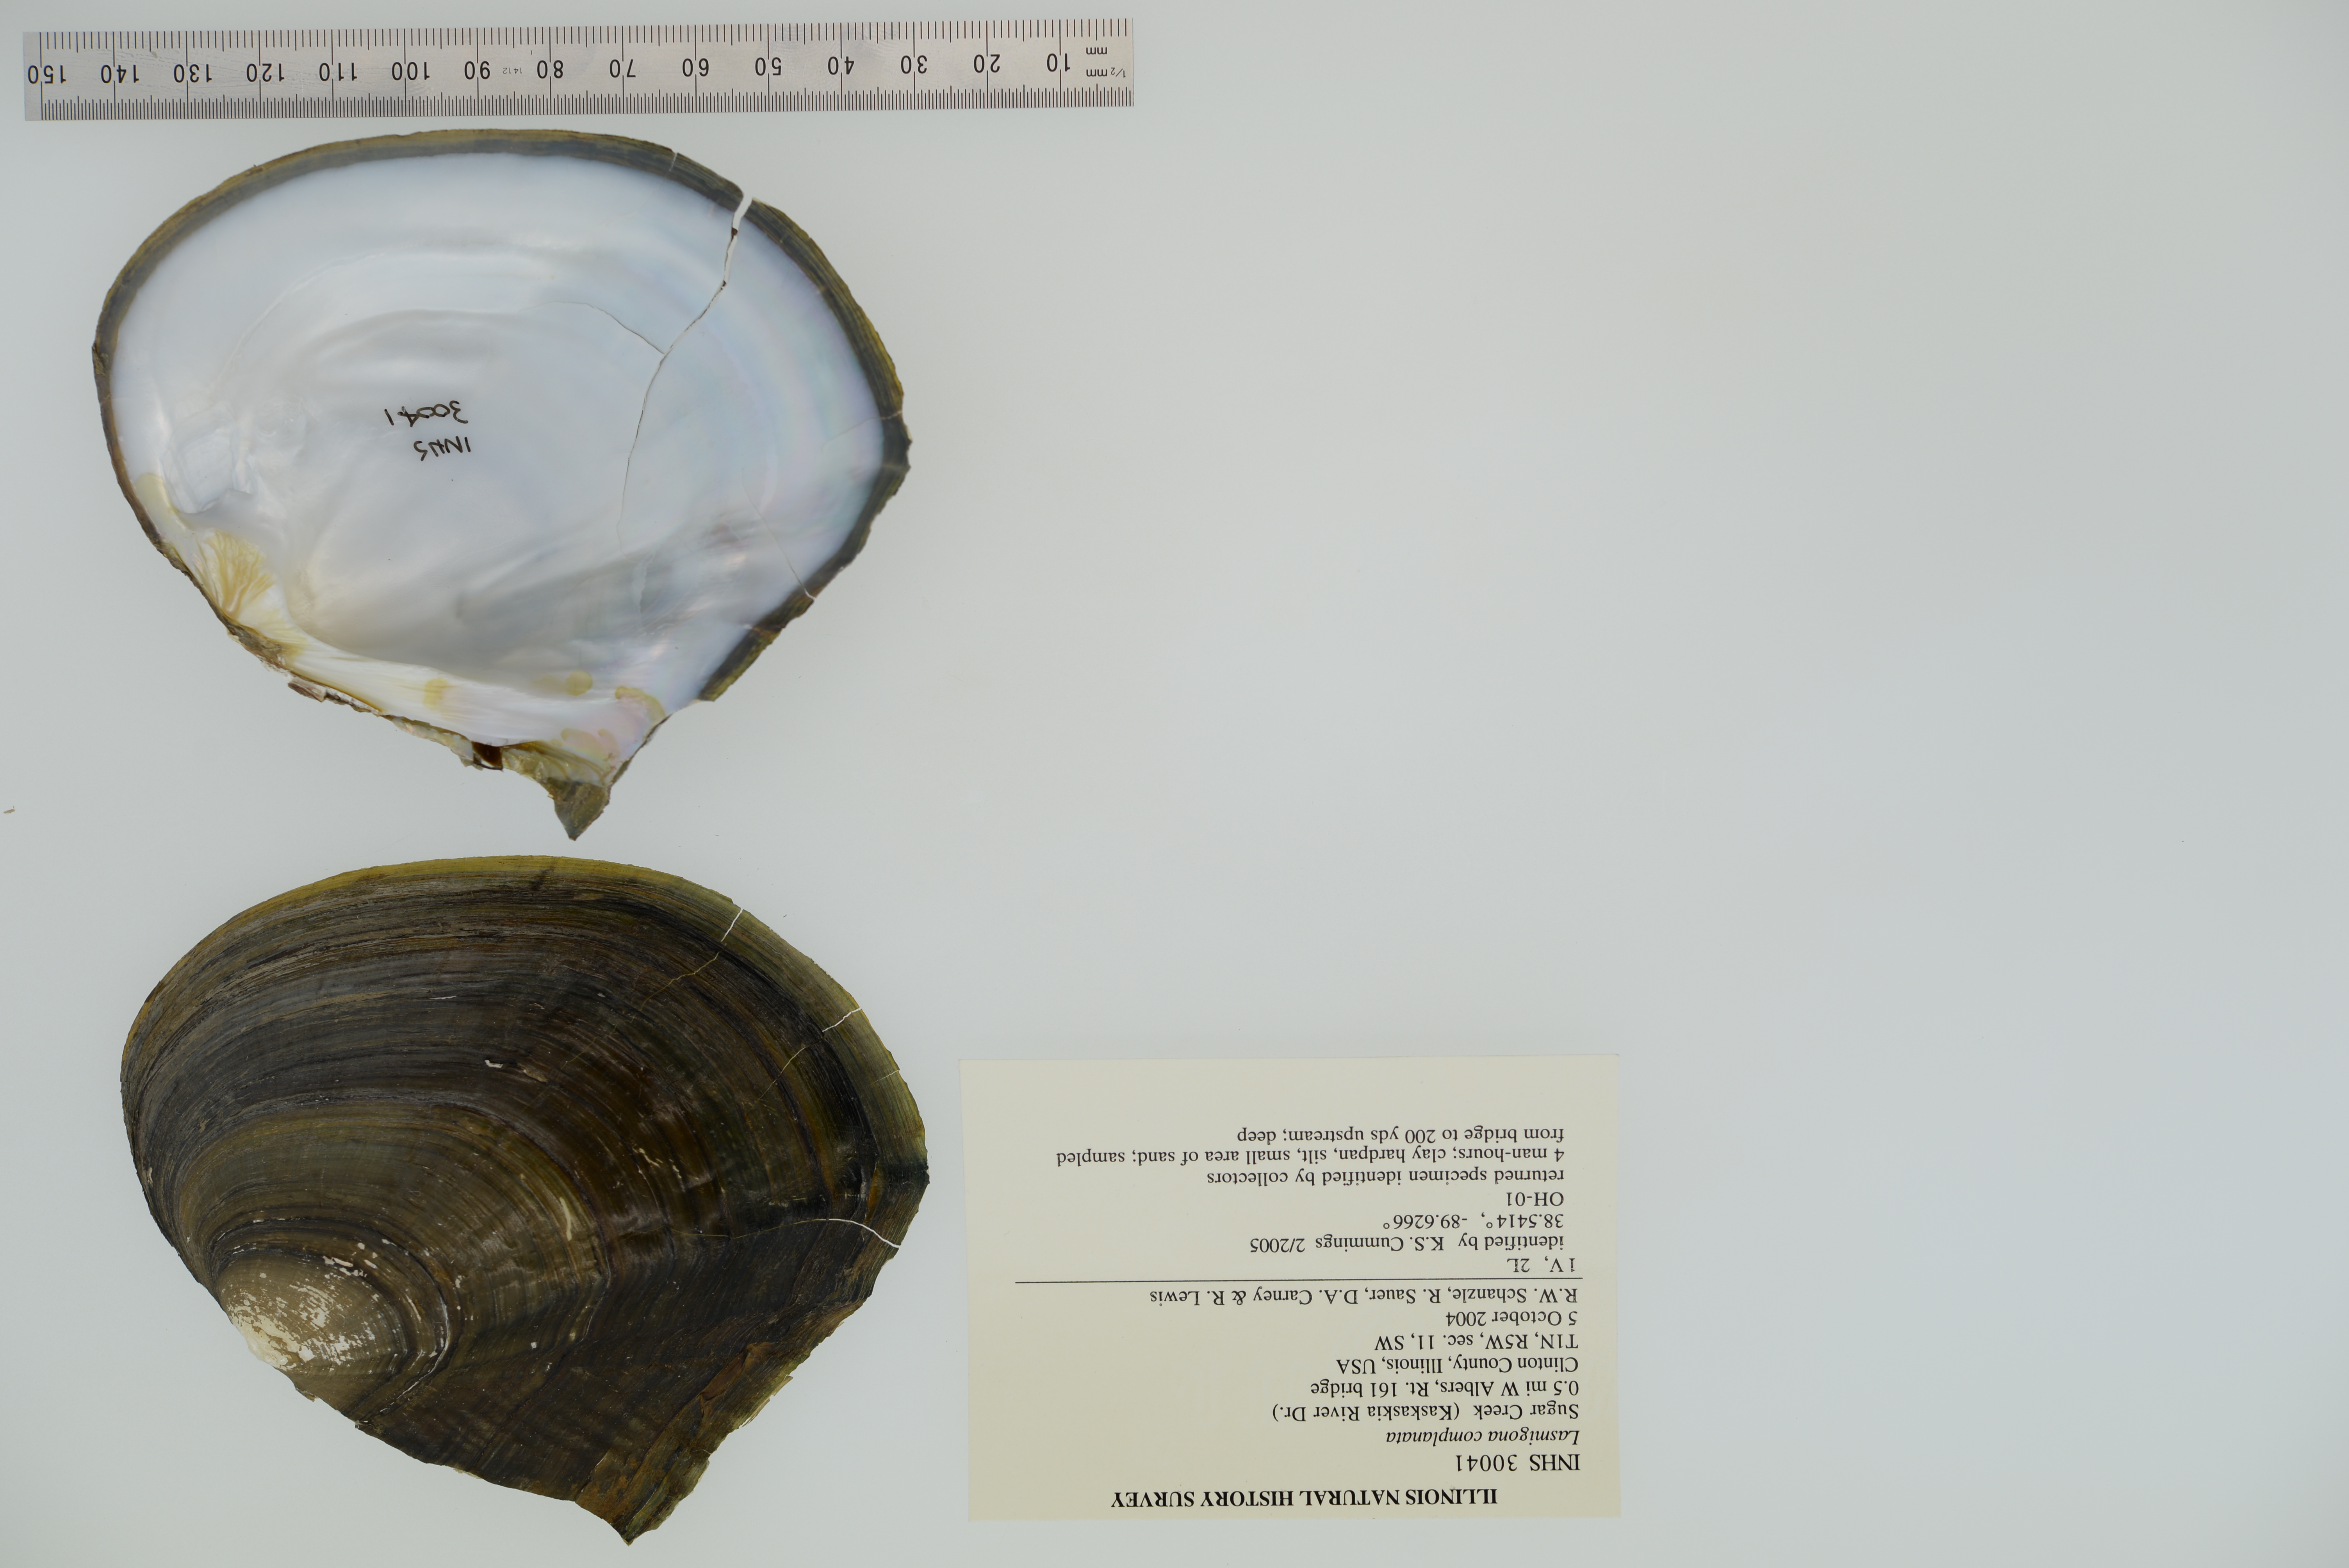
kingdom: Animalia
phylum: Mollusca
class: Bivalvia
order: Unionida
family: Unionidae
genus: Lasmigona
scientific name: Lasmigona complanata
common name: White heelsplitter
